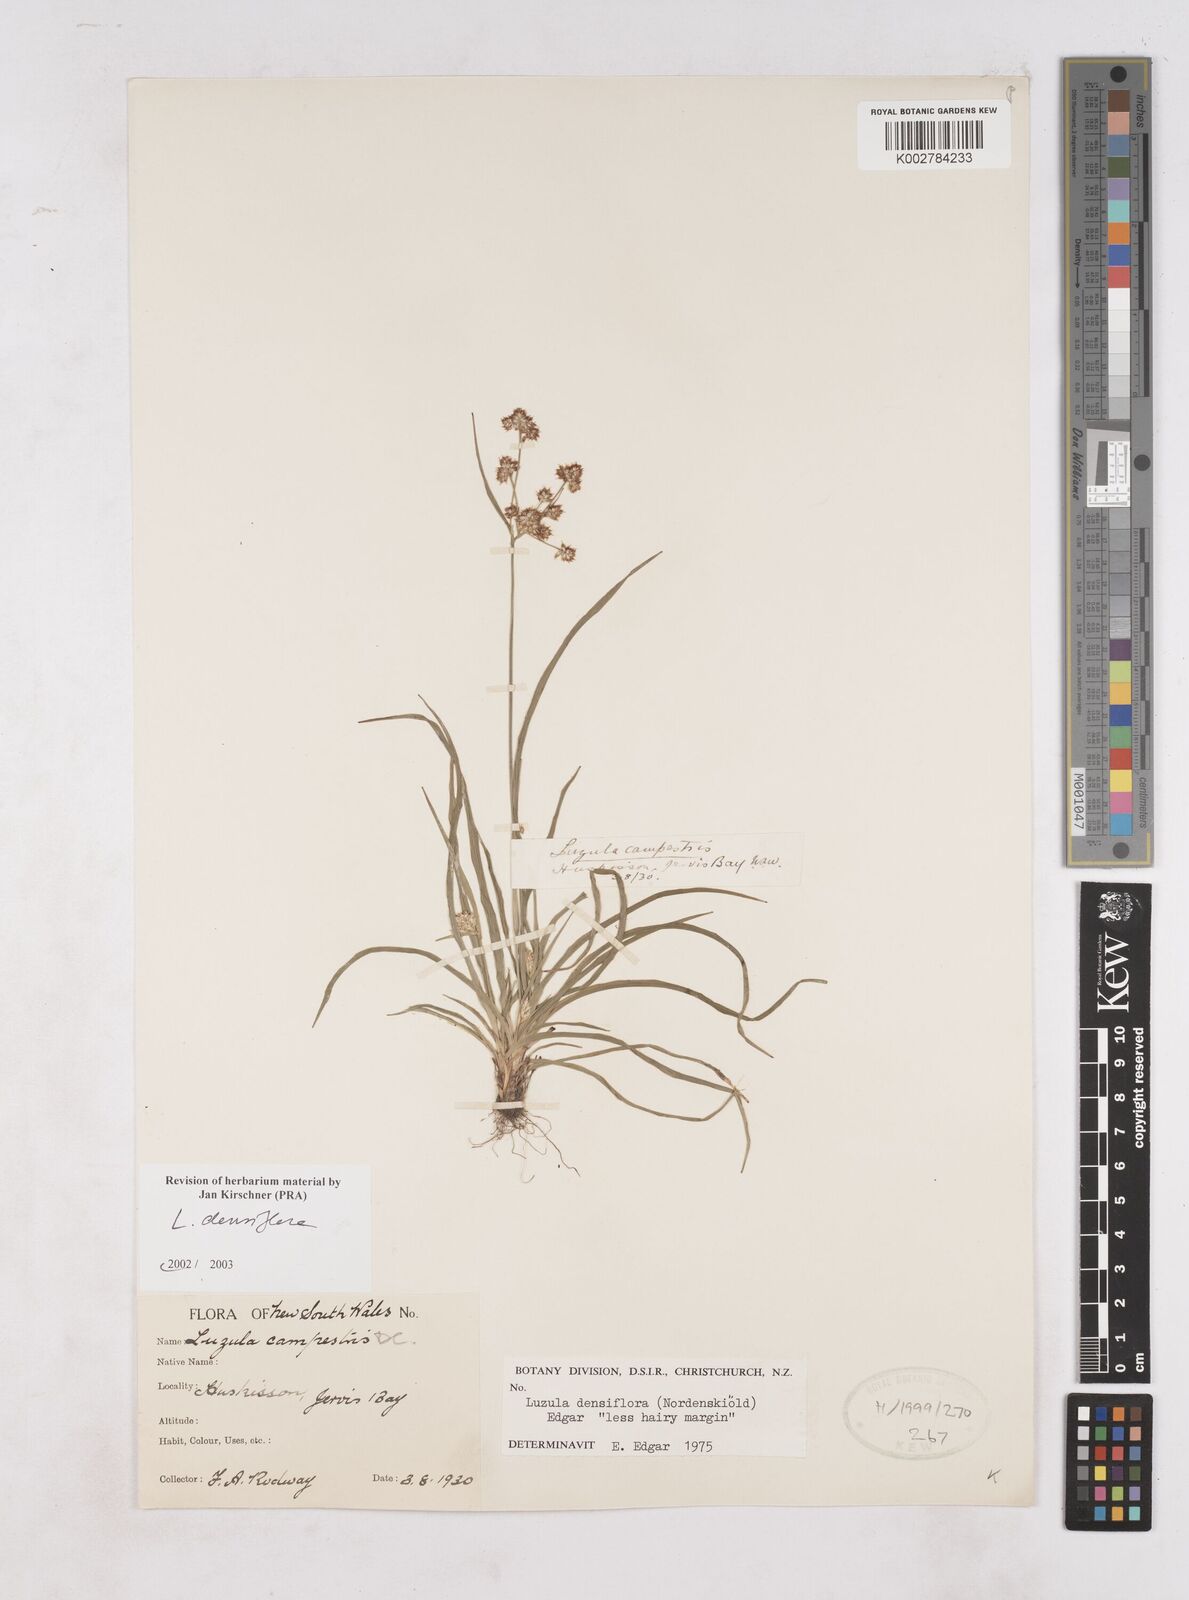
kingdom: Plantae
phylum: Tracheophyta
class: Liliopsida
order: Poales
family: Juncaceae
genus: Luzula
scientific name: Luzula densiflora
